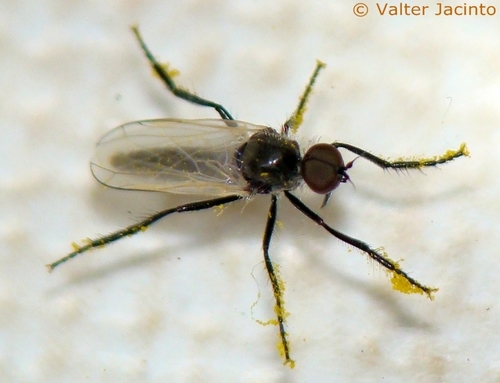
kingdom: Animalia
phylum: Arthropoda
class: Insecta
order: Diptera
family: Empididae
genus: Empis
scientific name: Empis
